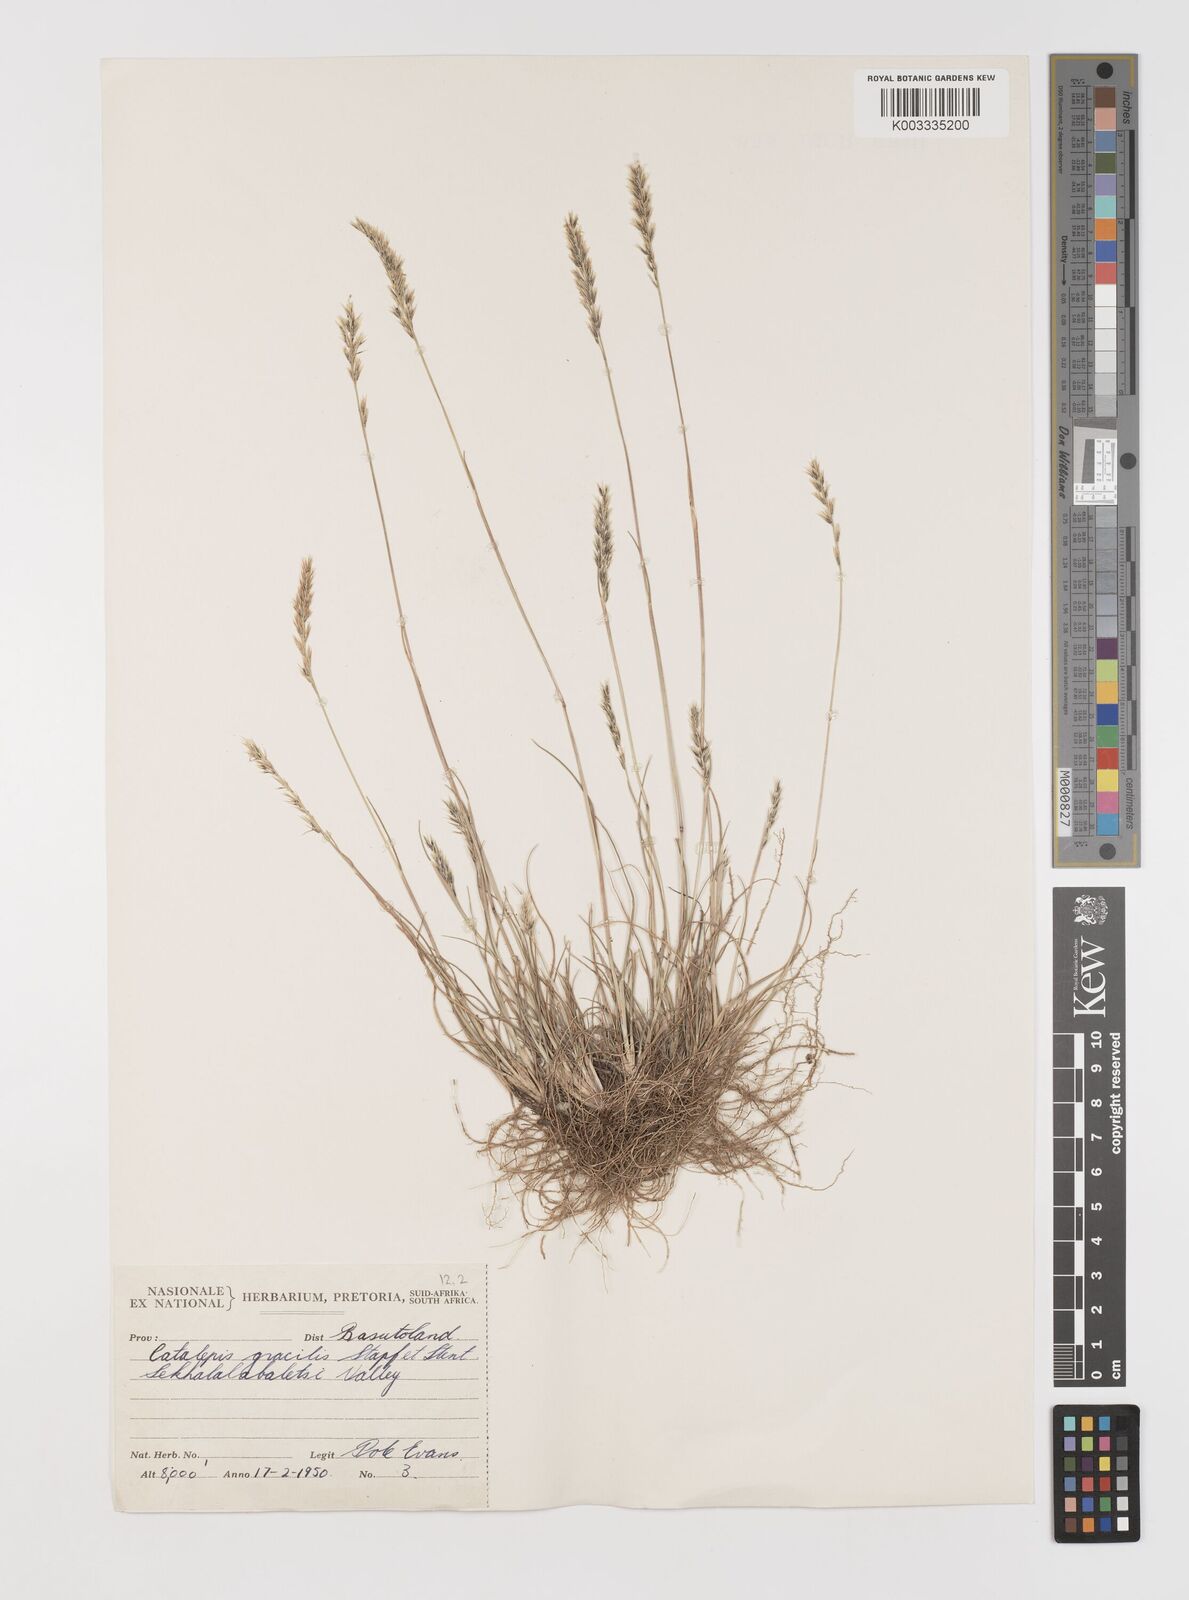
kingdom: Plantae
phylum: Tracheophyta
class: Liliopsida
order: Poales
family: Poaceae
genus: Catalepis
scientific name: Catalepis gracilis
